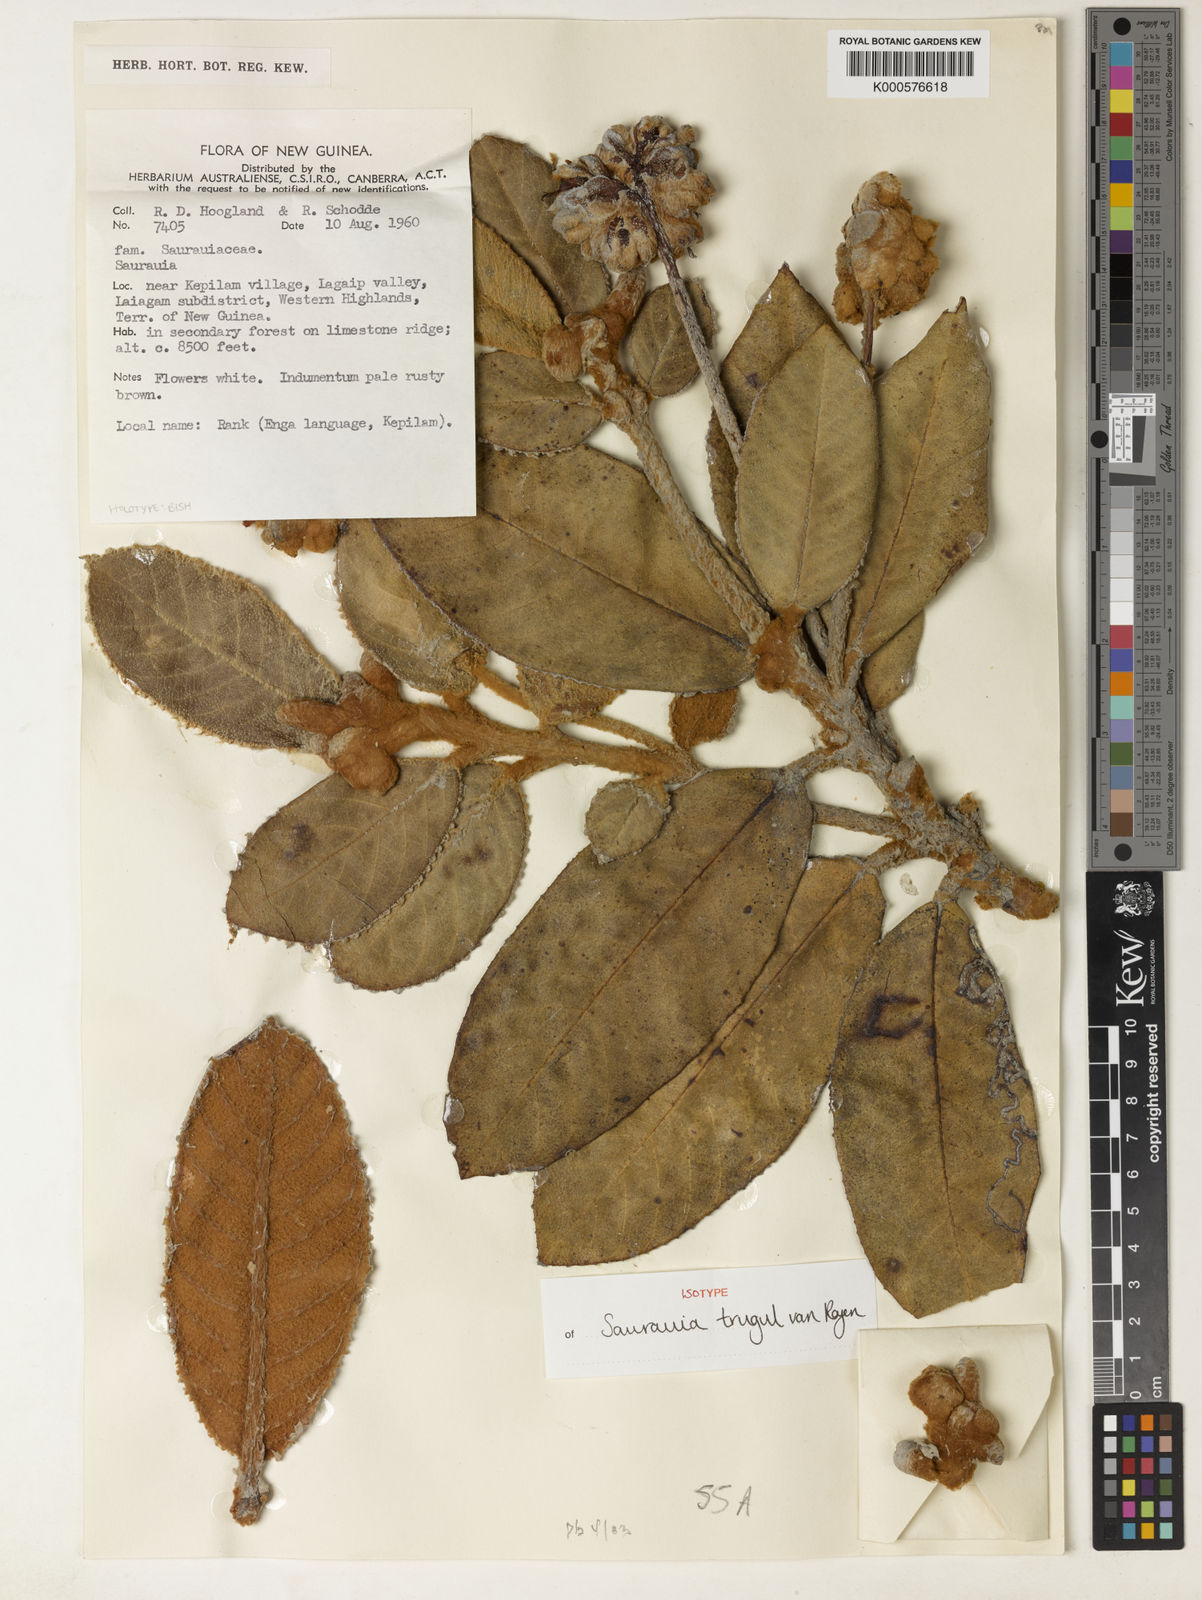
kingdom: Plantae
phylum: Tracheophyta
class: Magnoliopsida
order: Ericales
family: Actinidiaceae
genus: Saurauia
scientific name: Saurauia trugul
